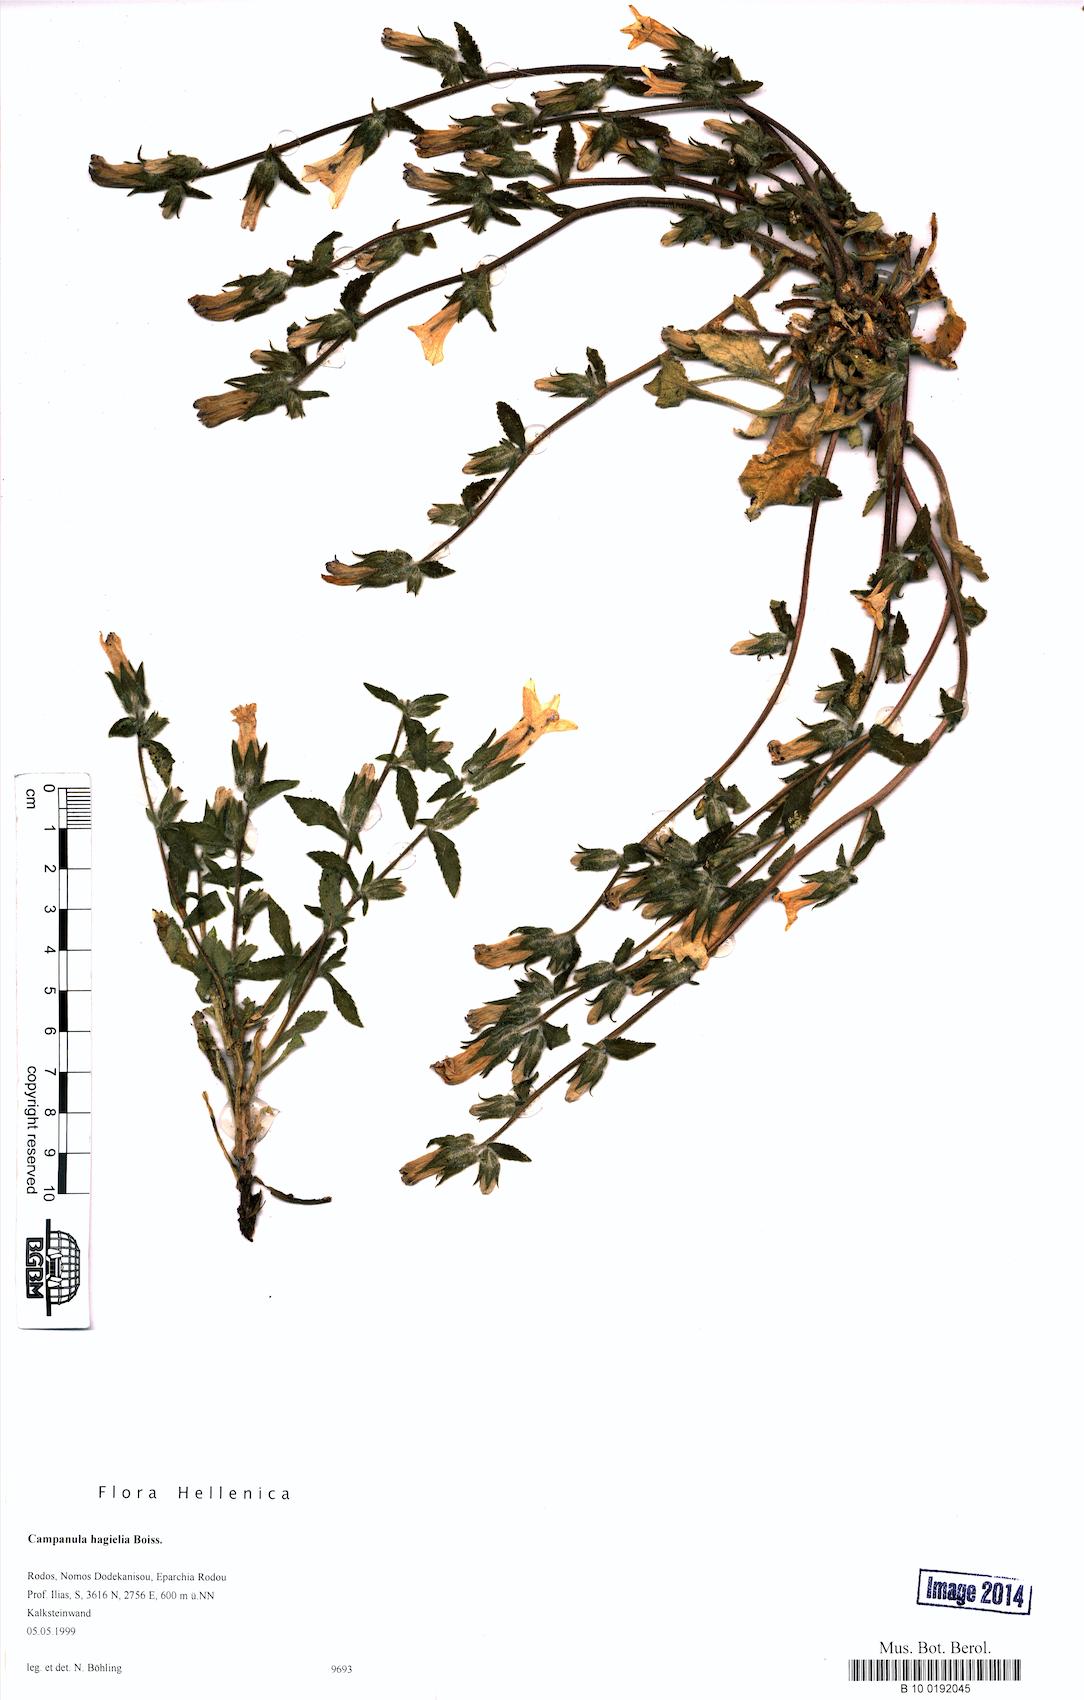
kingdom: Plantae
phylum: Tracheophyta
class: Magnoliopsida
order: Asterales
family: Campanulaceae
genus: Campanula
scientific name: Campanula hagielia
